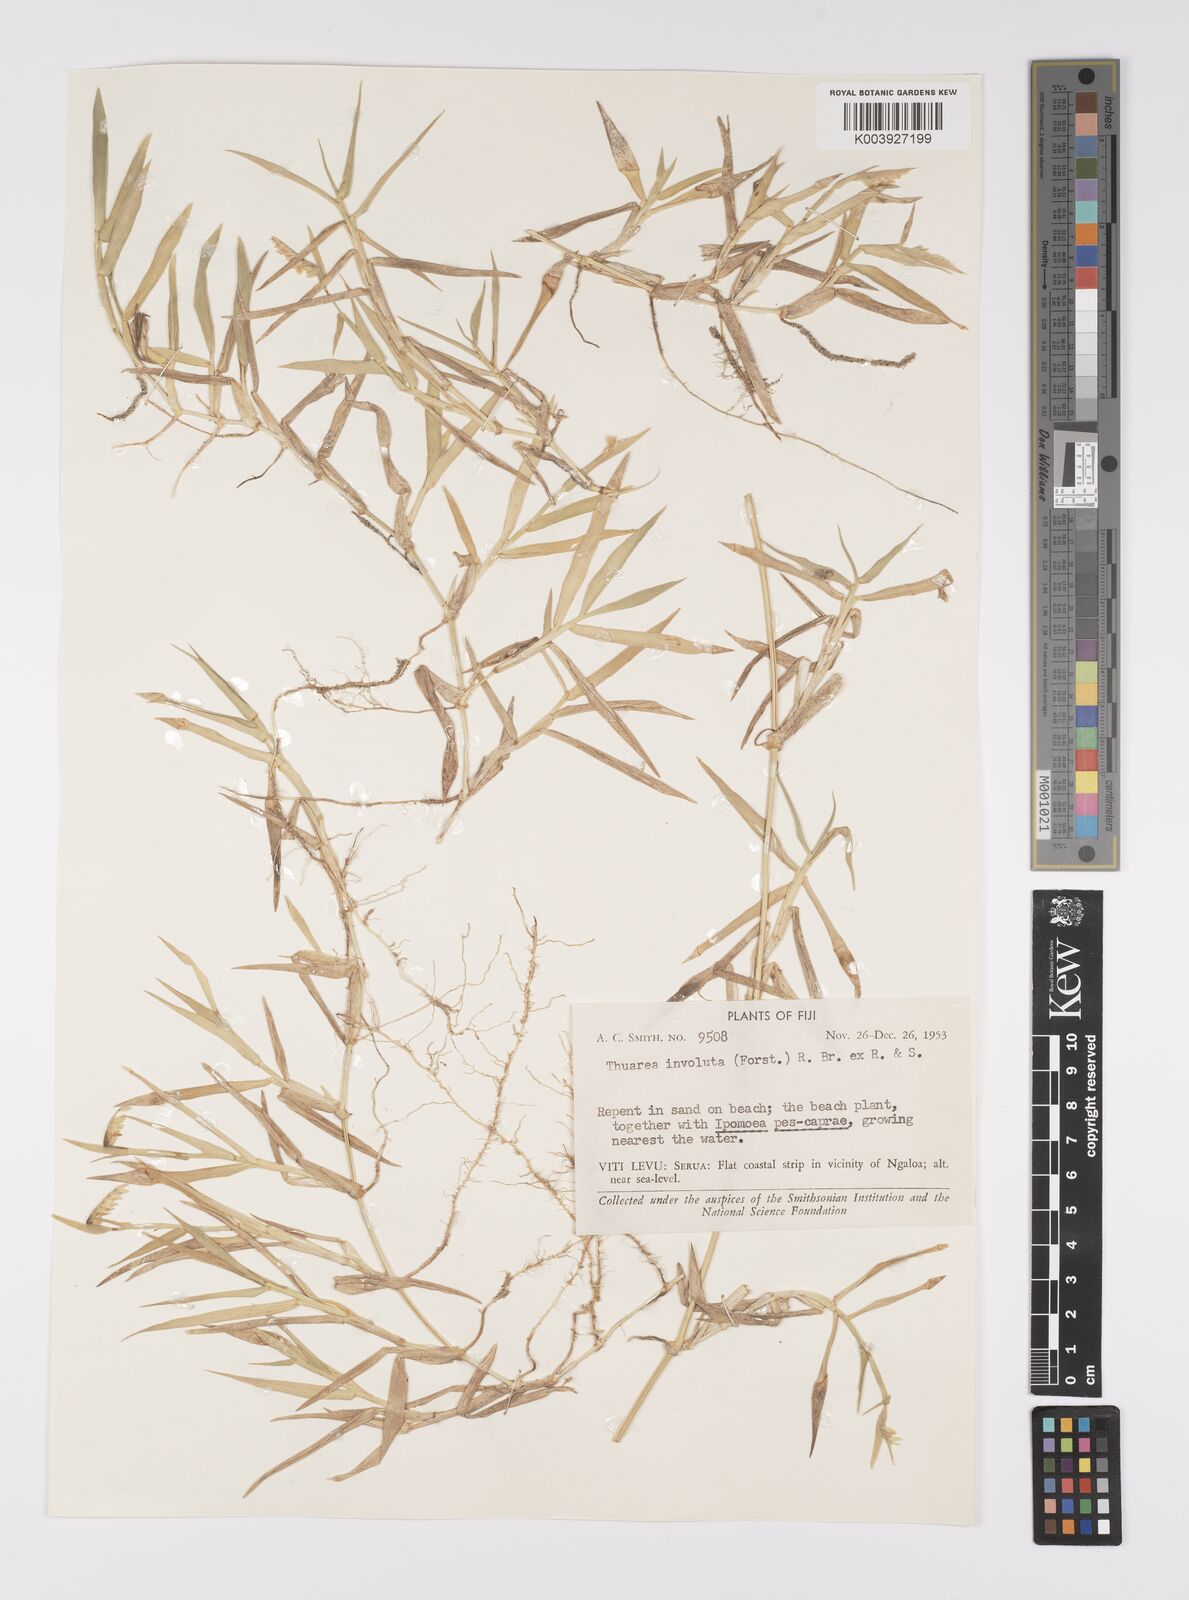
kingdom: Plantae
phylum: Tracheophyta
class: Liliopsida
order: Poales
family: Poaceae
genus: Thuarea
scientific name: Thuarea involuta
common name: Tropical beach grass
